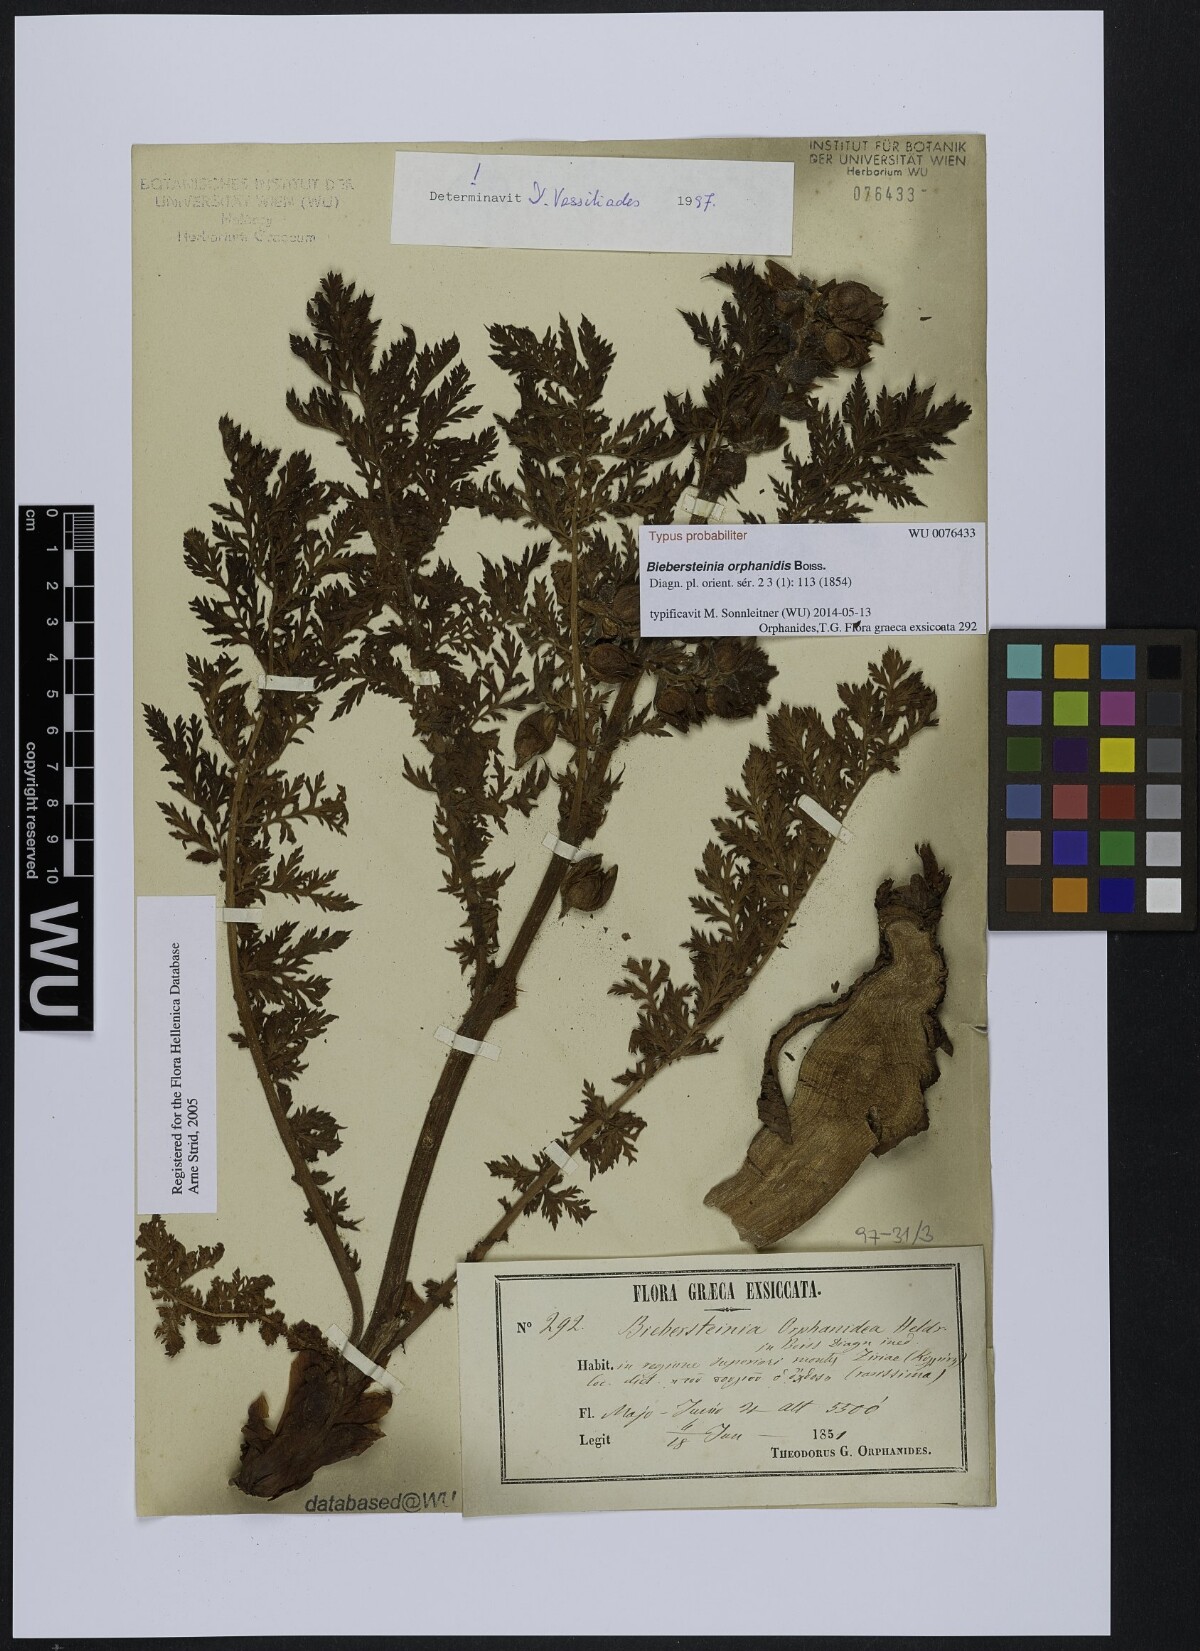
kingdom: Plantae
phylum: Tracheophyta
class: Magnoliopsida
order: Sapindales
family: Biebersteiniaceae
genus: Biebersteinia
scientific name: Biebersteinia orphanidis
